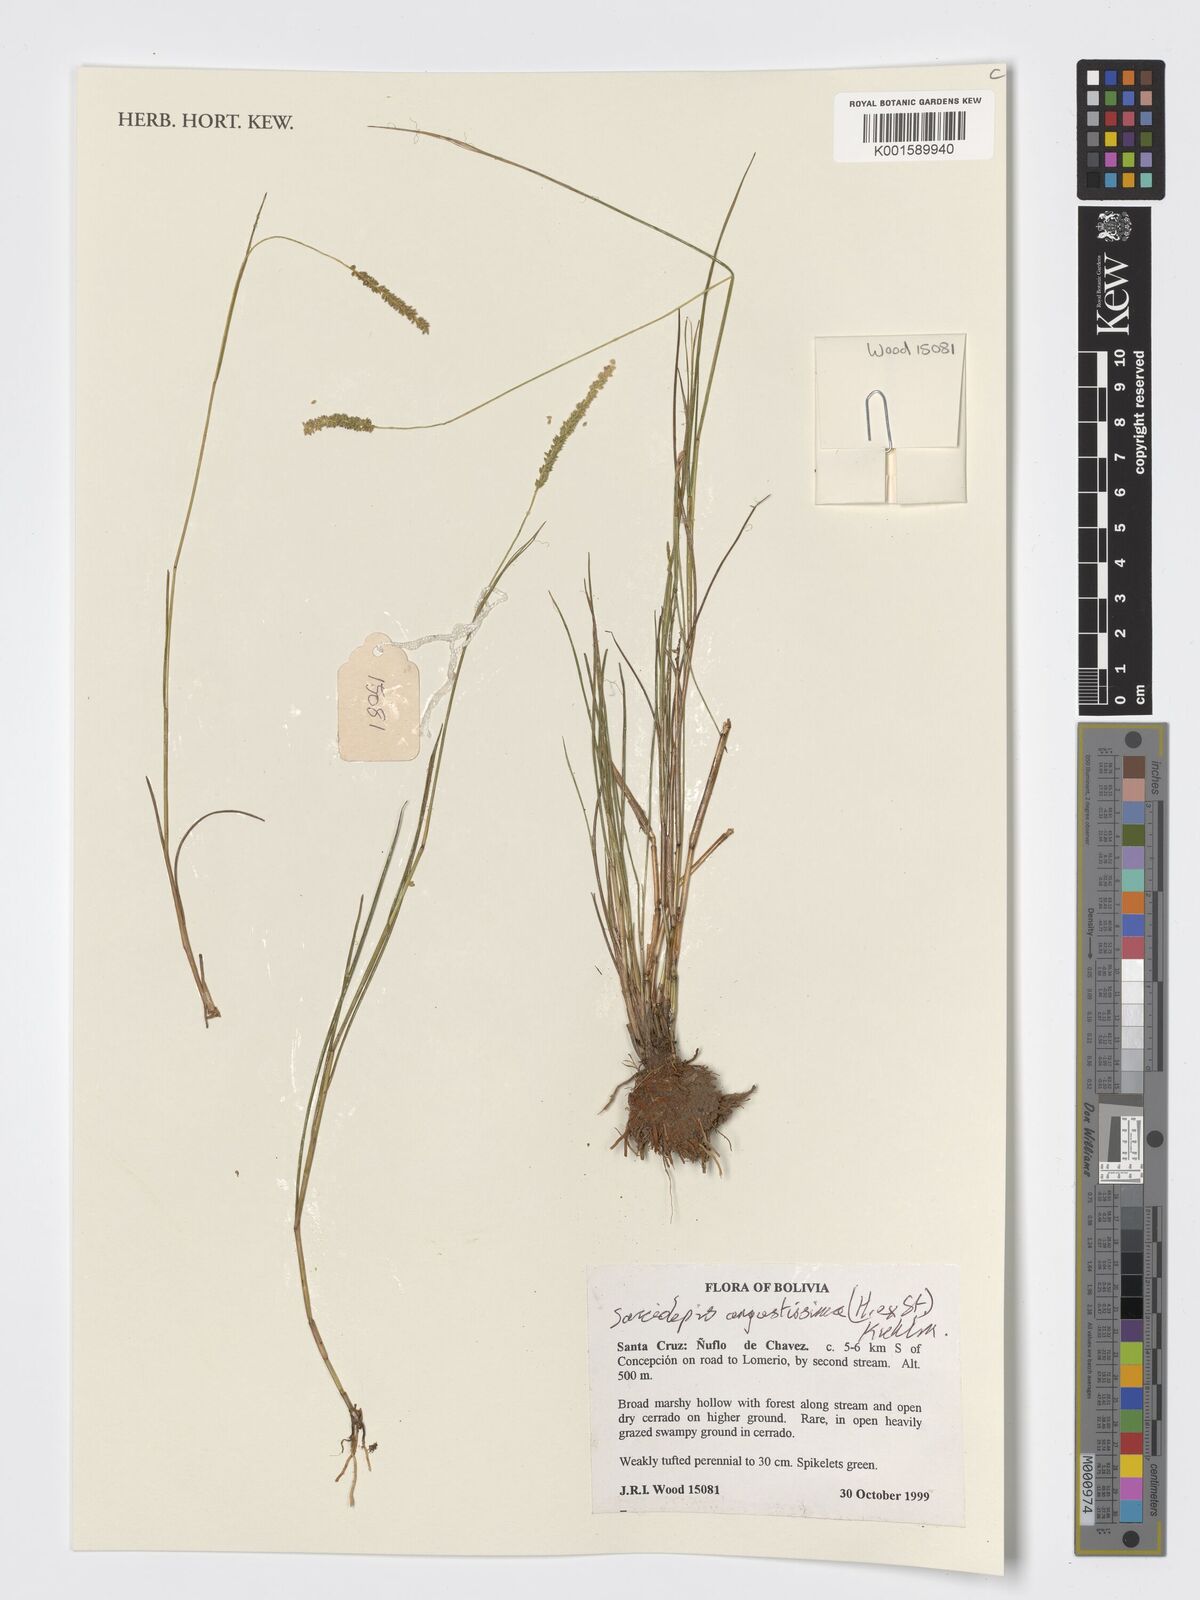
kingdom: Plantae
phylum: Tracheophyta
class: Liliopsida
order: Poales
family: Poaceae
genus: Sacciolepis
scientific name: Sacciolepis angustissima
